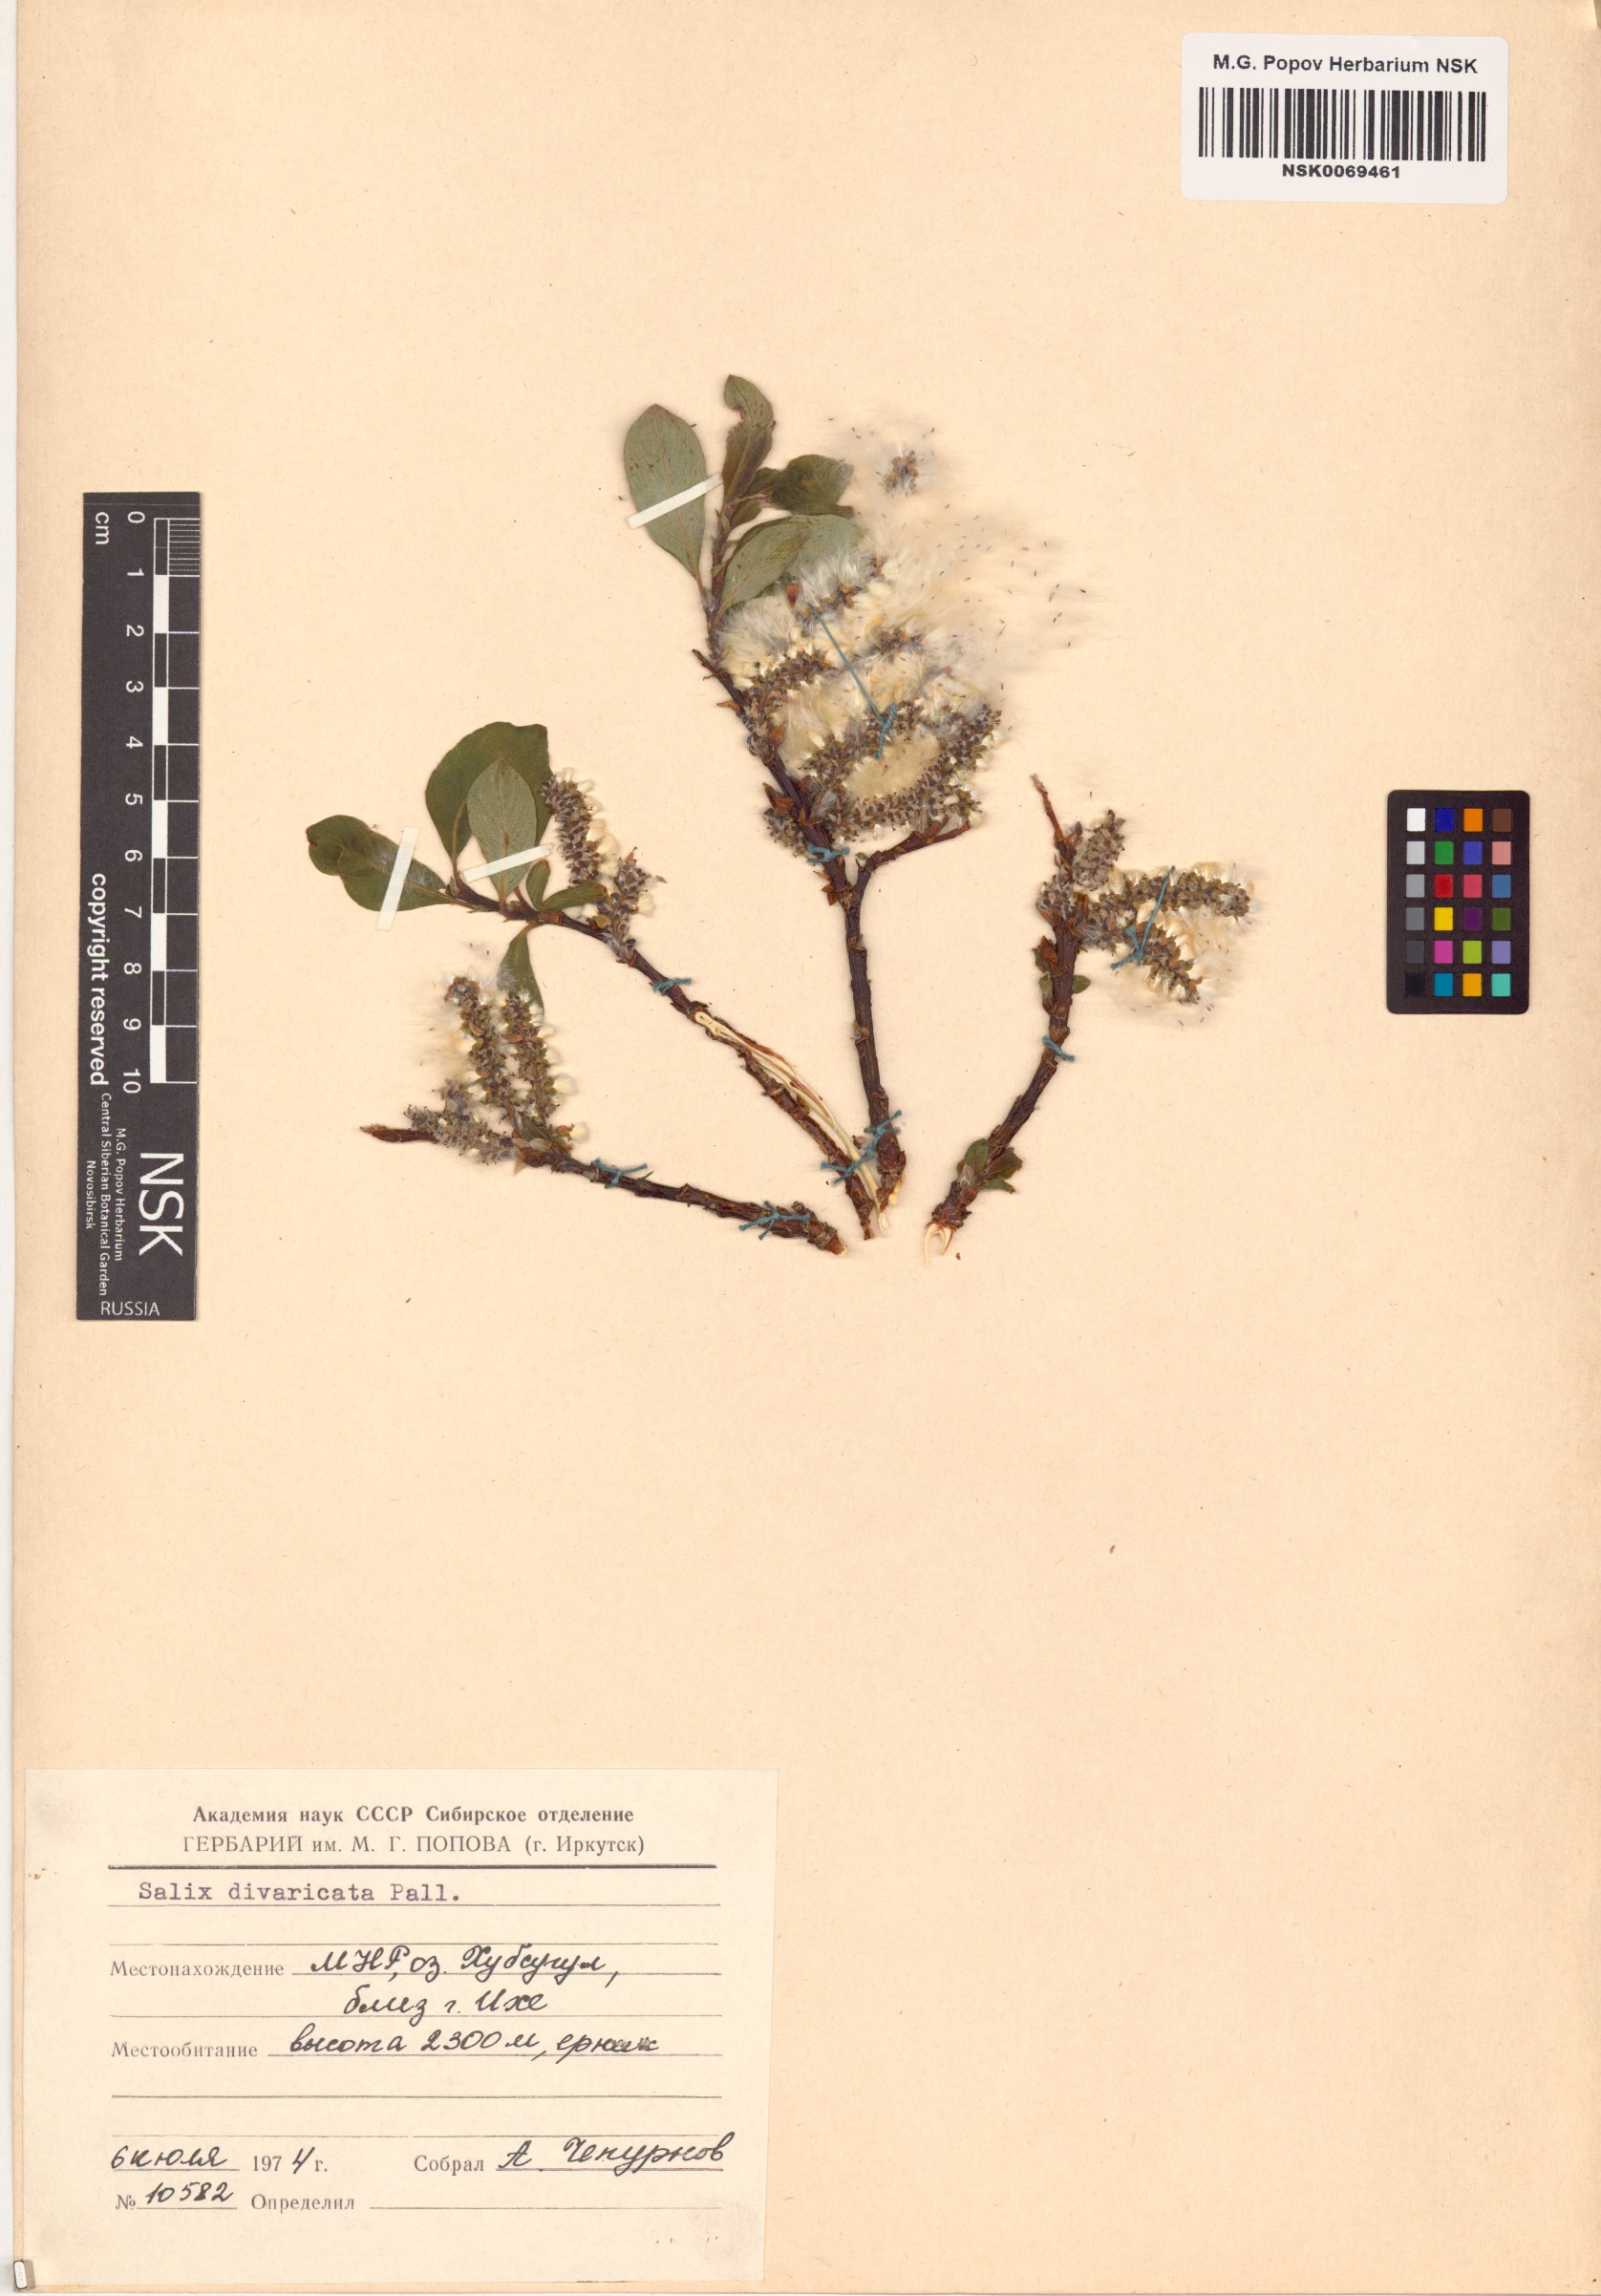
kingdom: Plantae
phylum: Tracheophyta
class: Magnoliopsida
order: Malpighiales
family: Salicaceae
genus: Salix
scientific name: Salix divaricata
